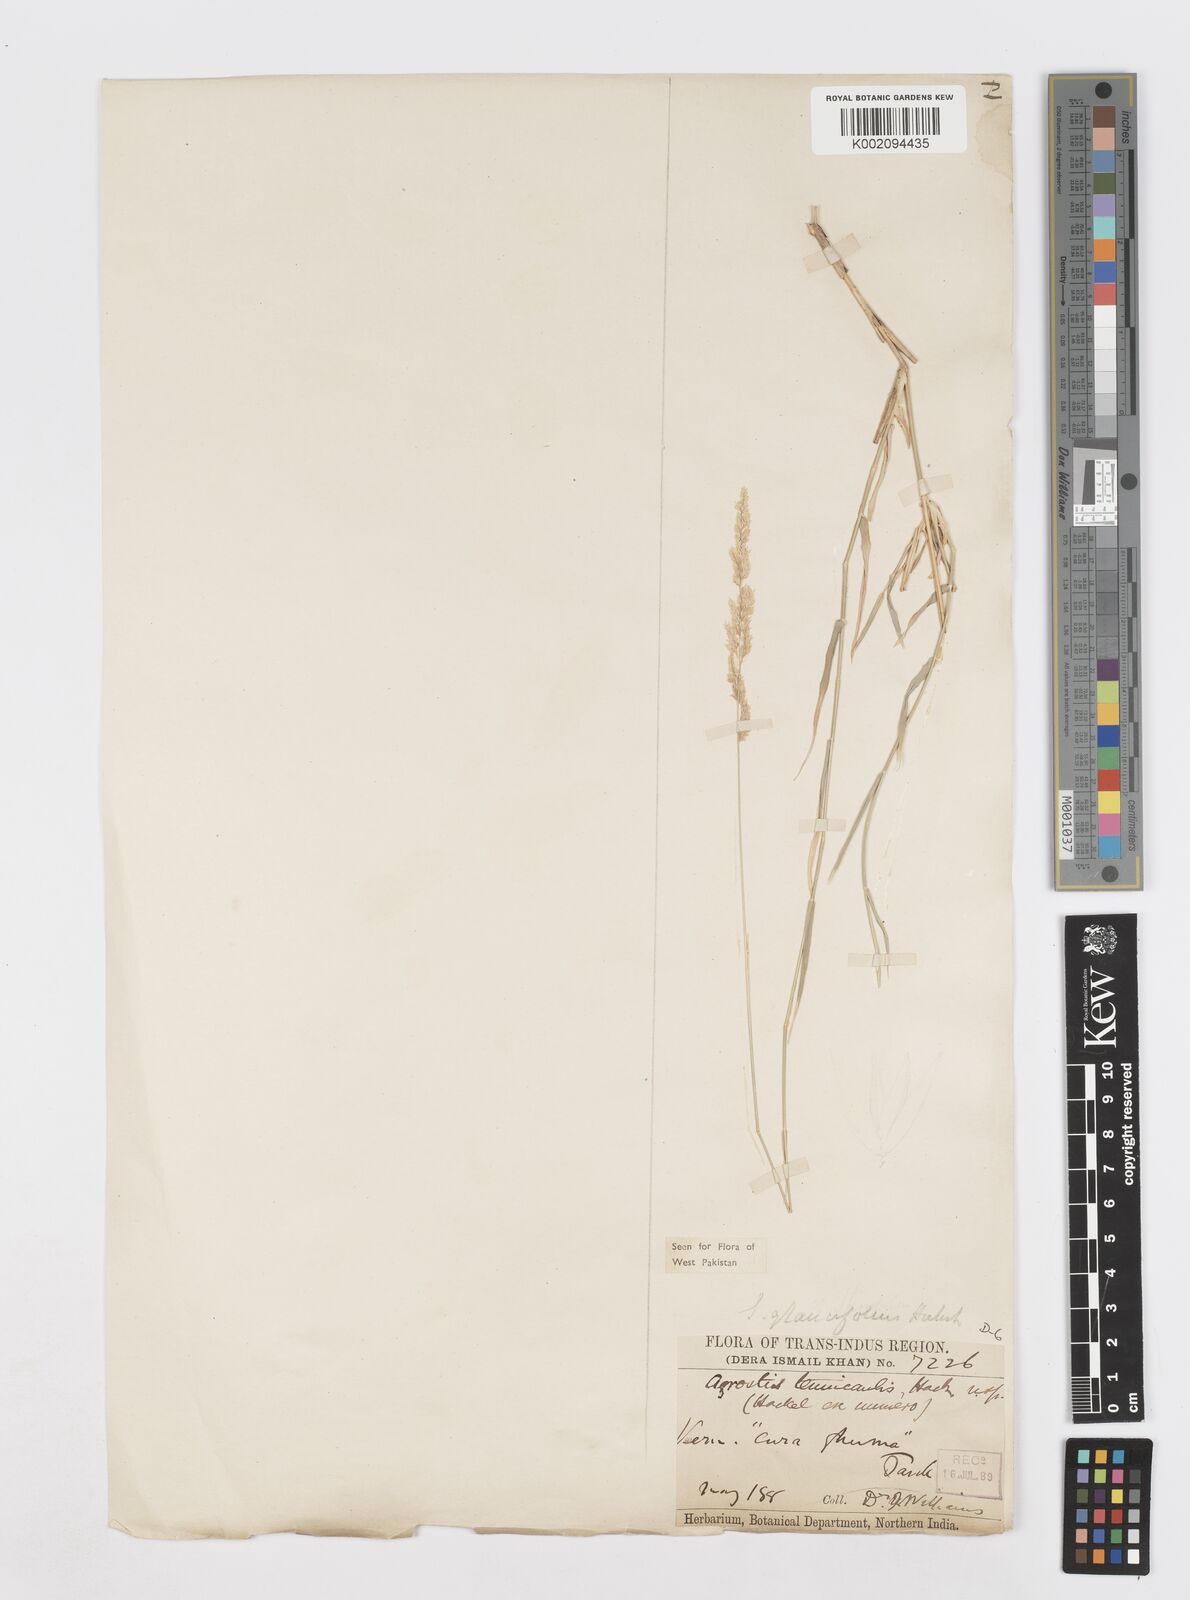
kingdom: Plantae
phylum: Tracheophyta
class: Liliopsida
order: Poales
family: Poaceae
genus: Sporobolus
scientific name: Sporobolus helvolus
